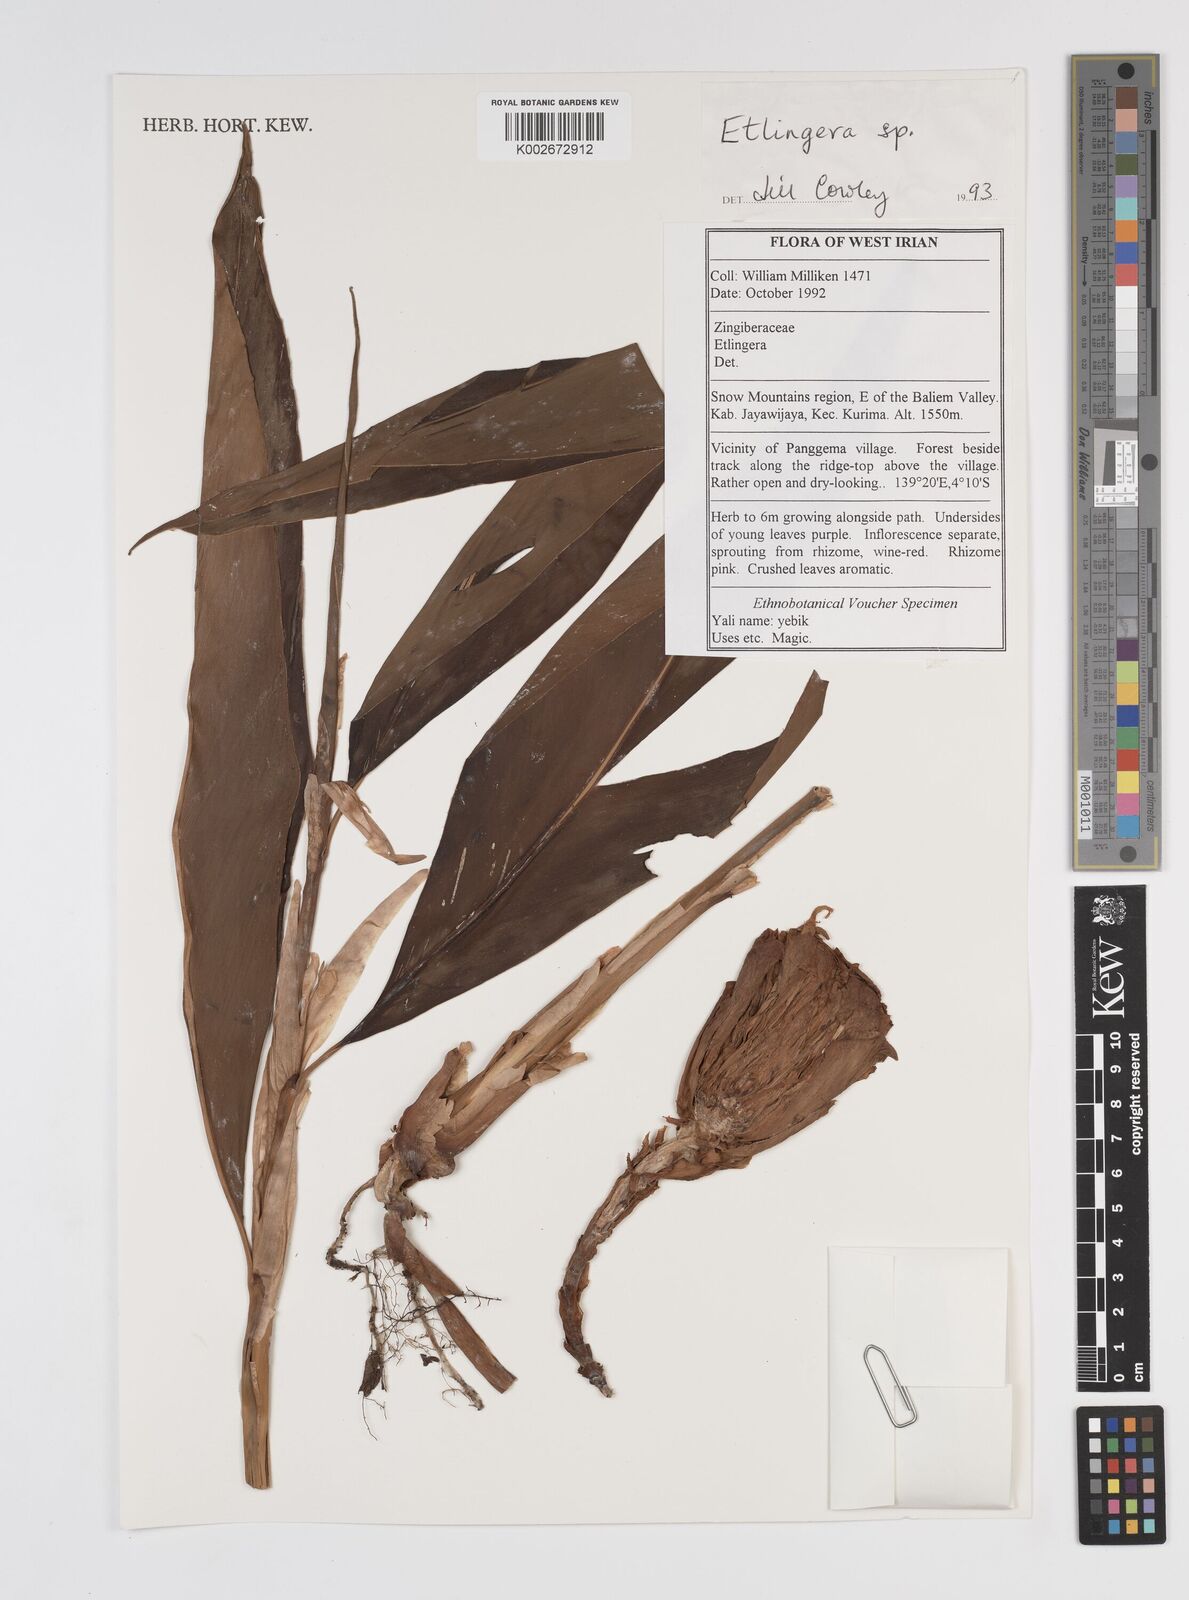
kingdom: Plantae
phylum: Tracheophyta
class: Liliopsida
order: Zingiberales
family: Zingiberaceae
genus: Etlingera
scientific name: Etlingera
